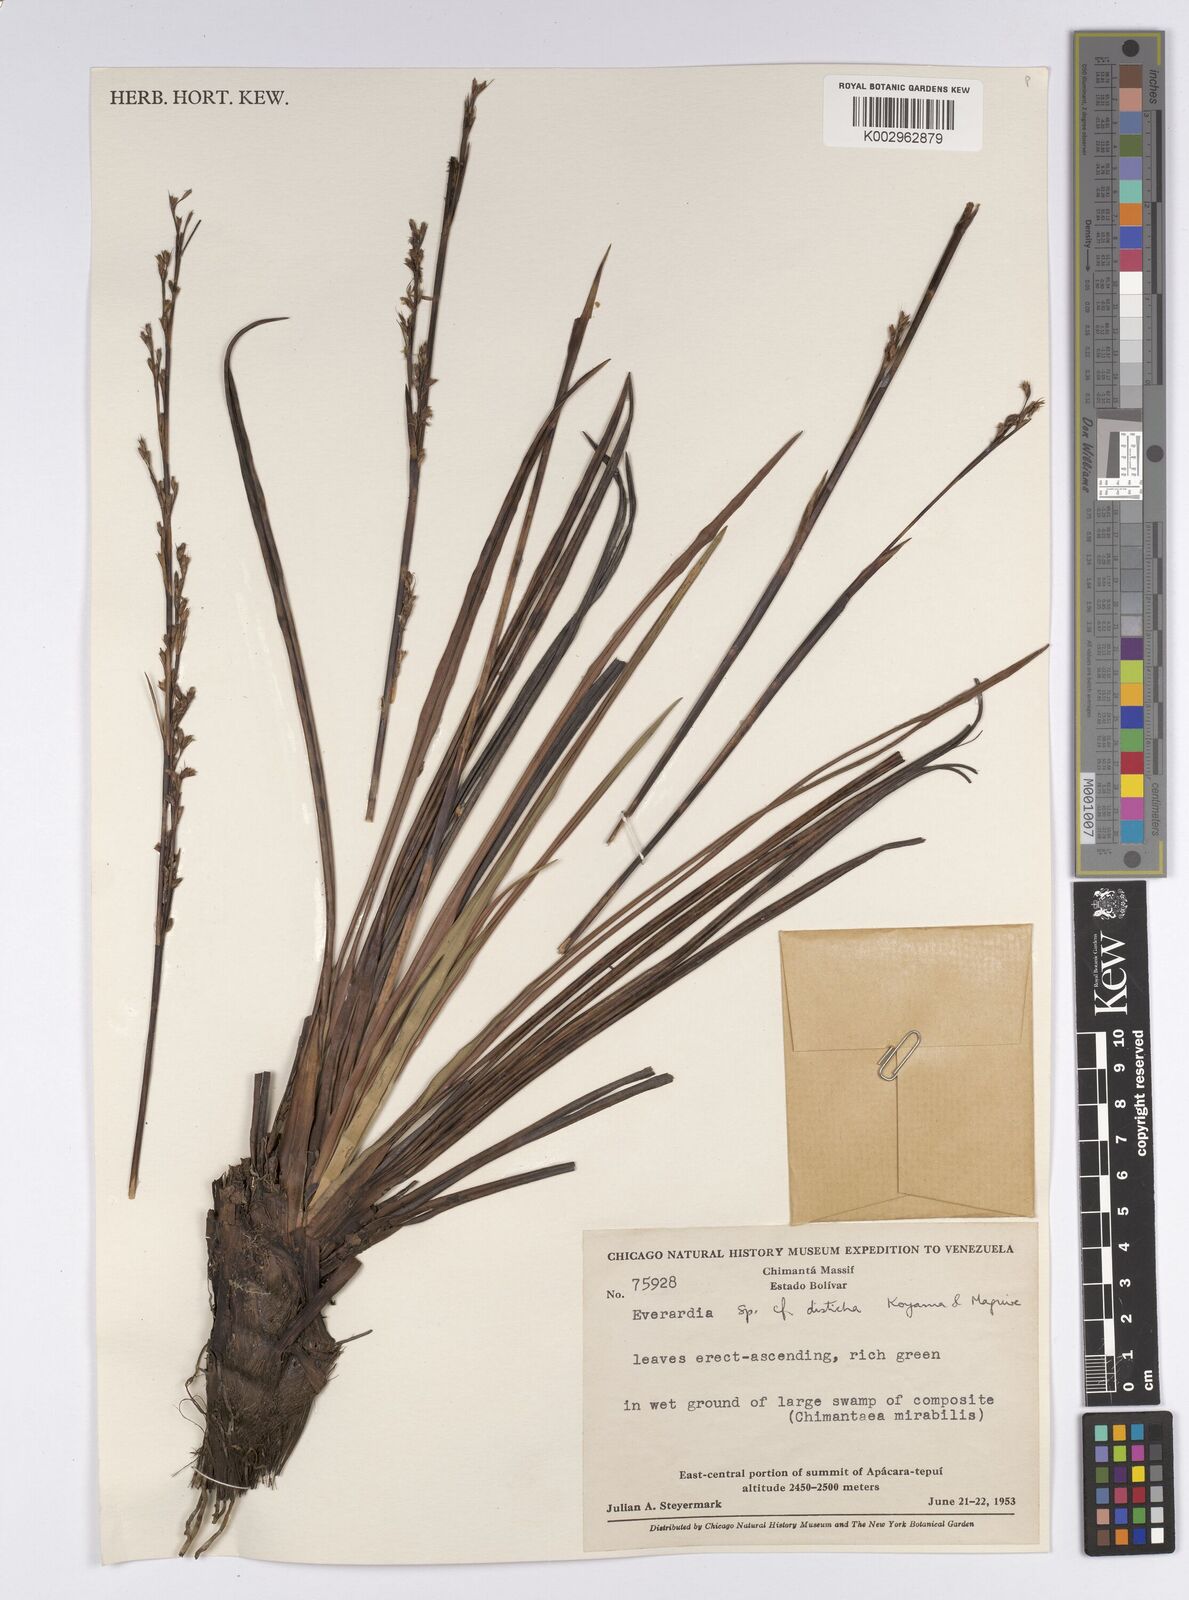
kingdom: Plantae
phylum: Tracheophyta
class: Liliopsida
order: Poales
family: Cyperaceae
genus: Cephalocarpus
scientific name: Cephalocarpus distichus
